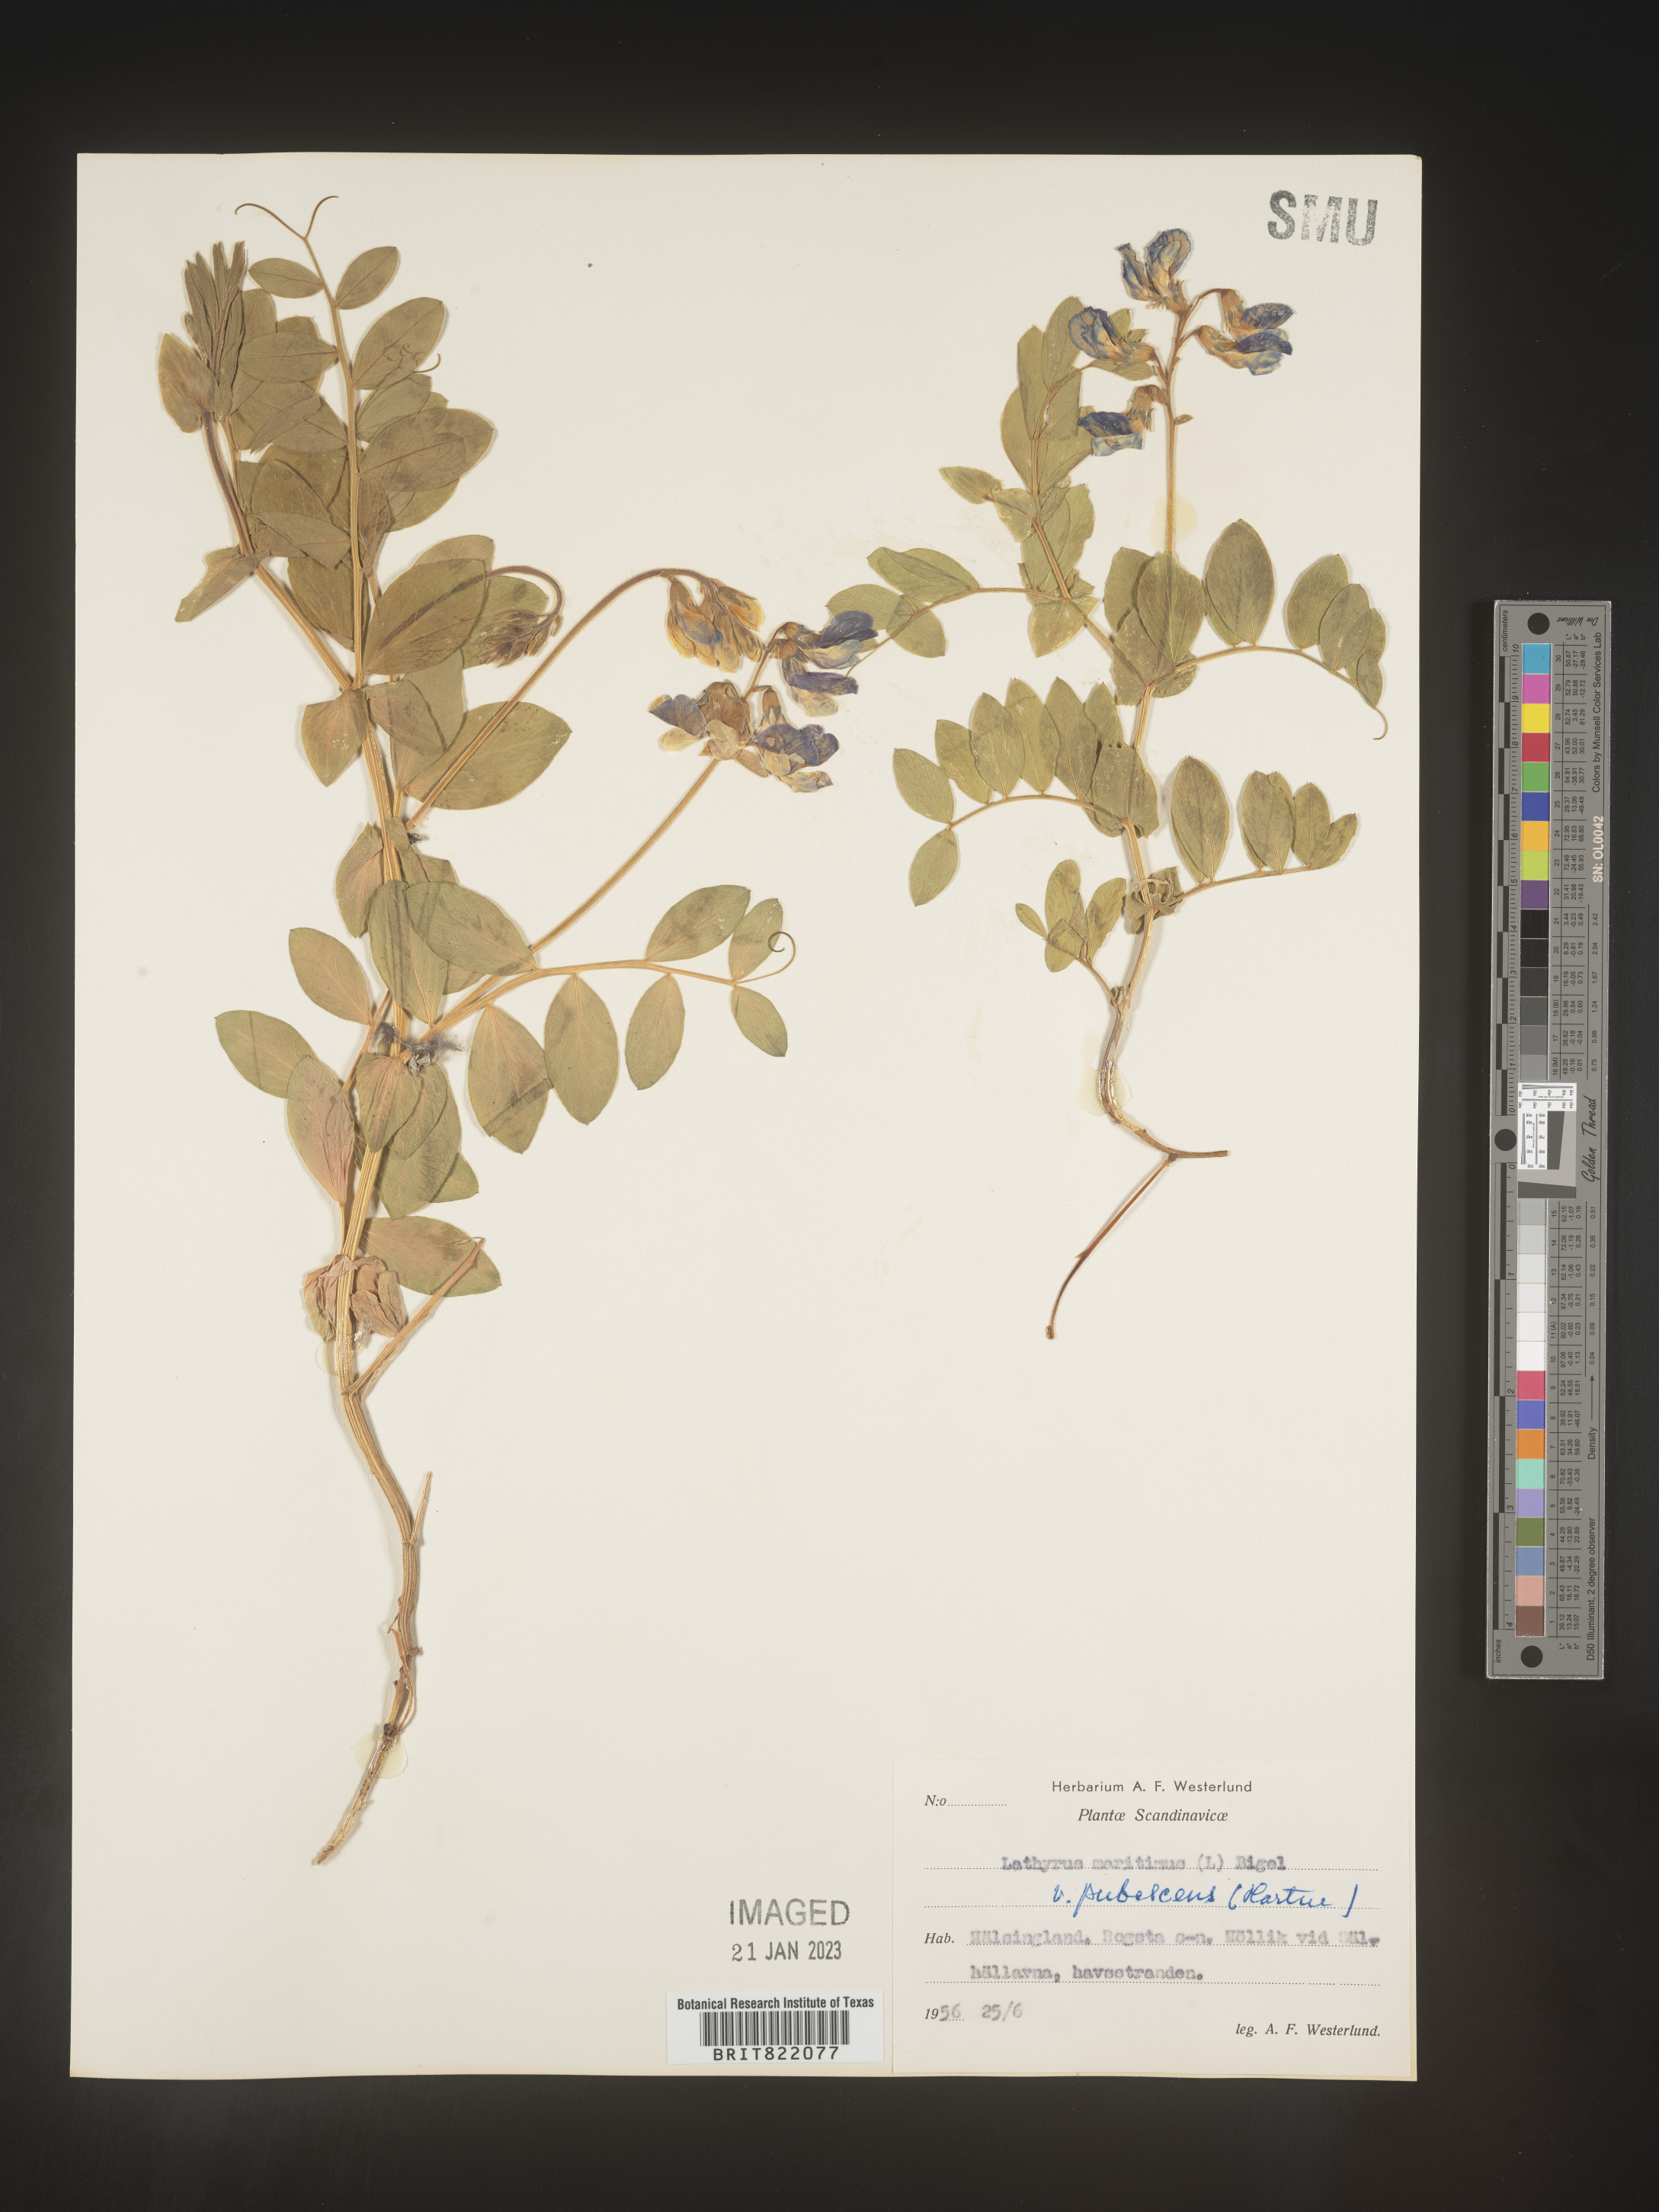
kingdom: Plantae
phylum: Tracheophyta
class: Magnoliopsida
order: Fabales
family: Fabaceae
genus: Lathyrus
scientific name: Lathyrus
